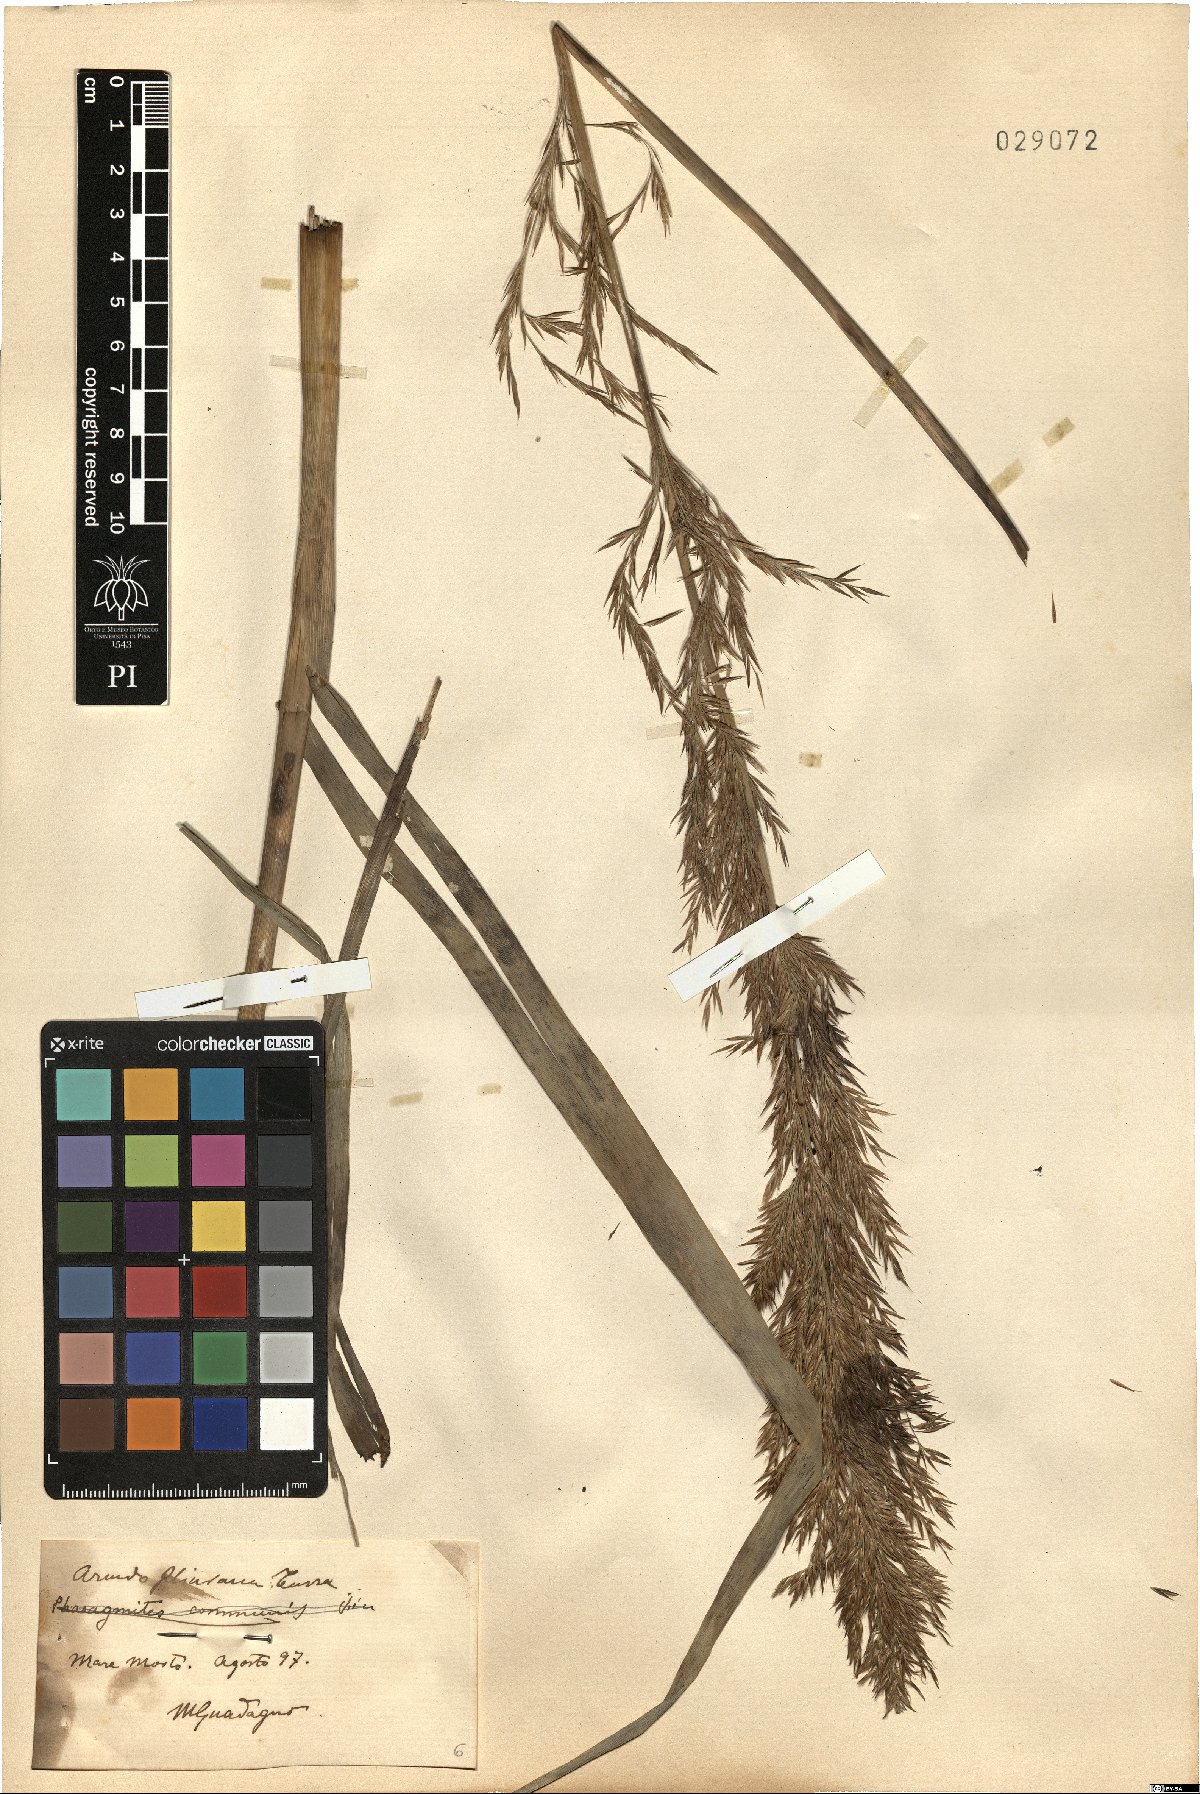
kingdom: Plantae
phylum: Tracheophyta
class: Liliopsida
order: Poales
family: Poaceae
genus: Arundo
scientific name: Arundo plinii
